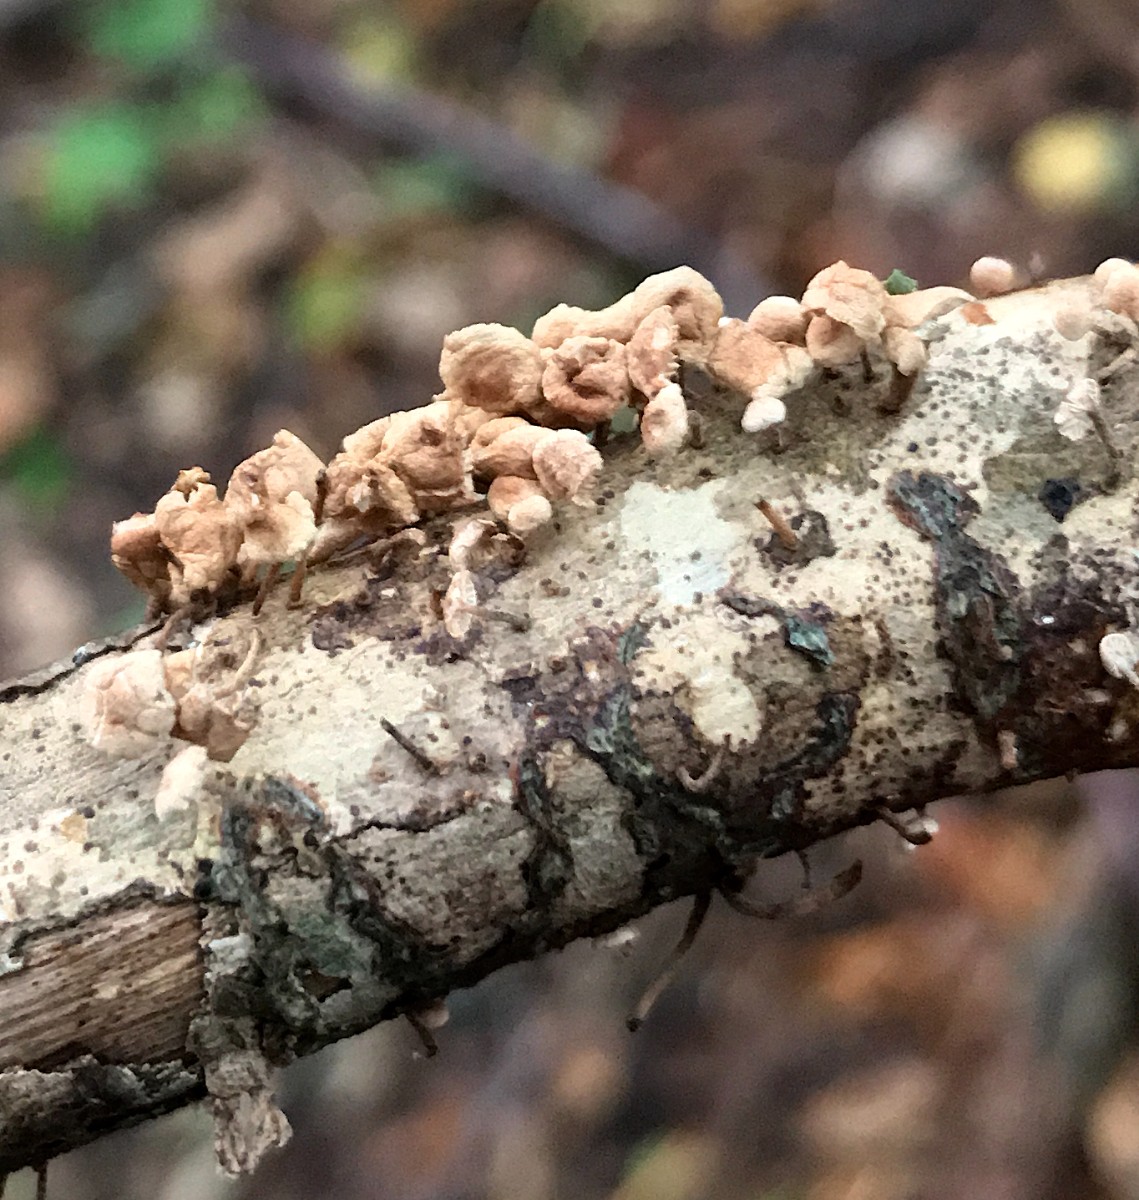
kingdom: Fungi
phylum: Basidiomycota
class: Agaricomycetes
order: Agaricales
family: Omphalotaceae
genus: Collybiopsis
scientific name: Collybiopsis ramealis
